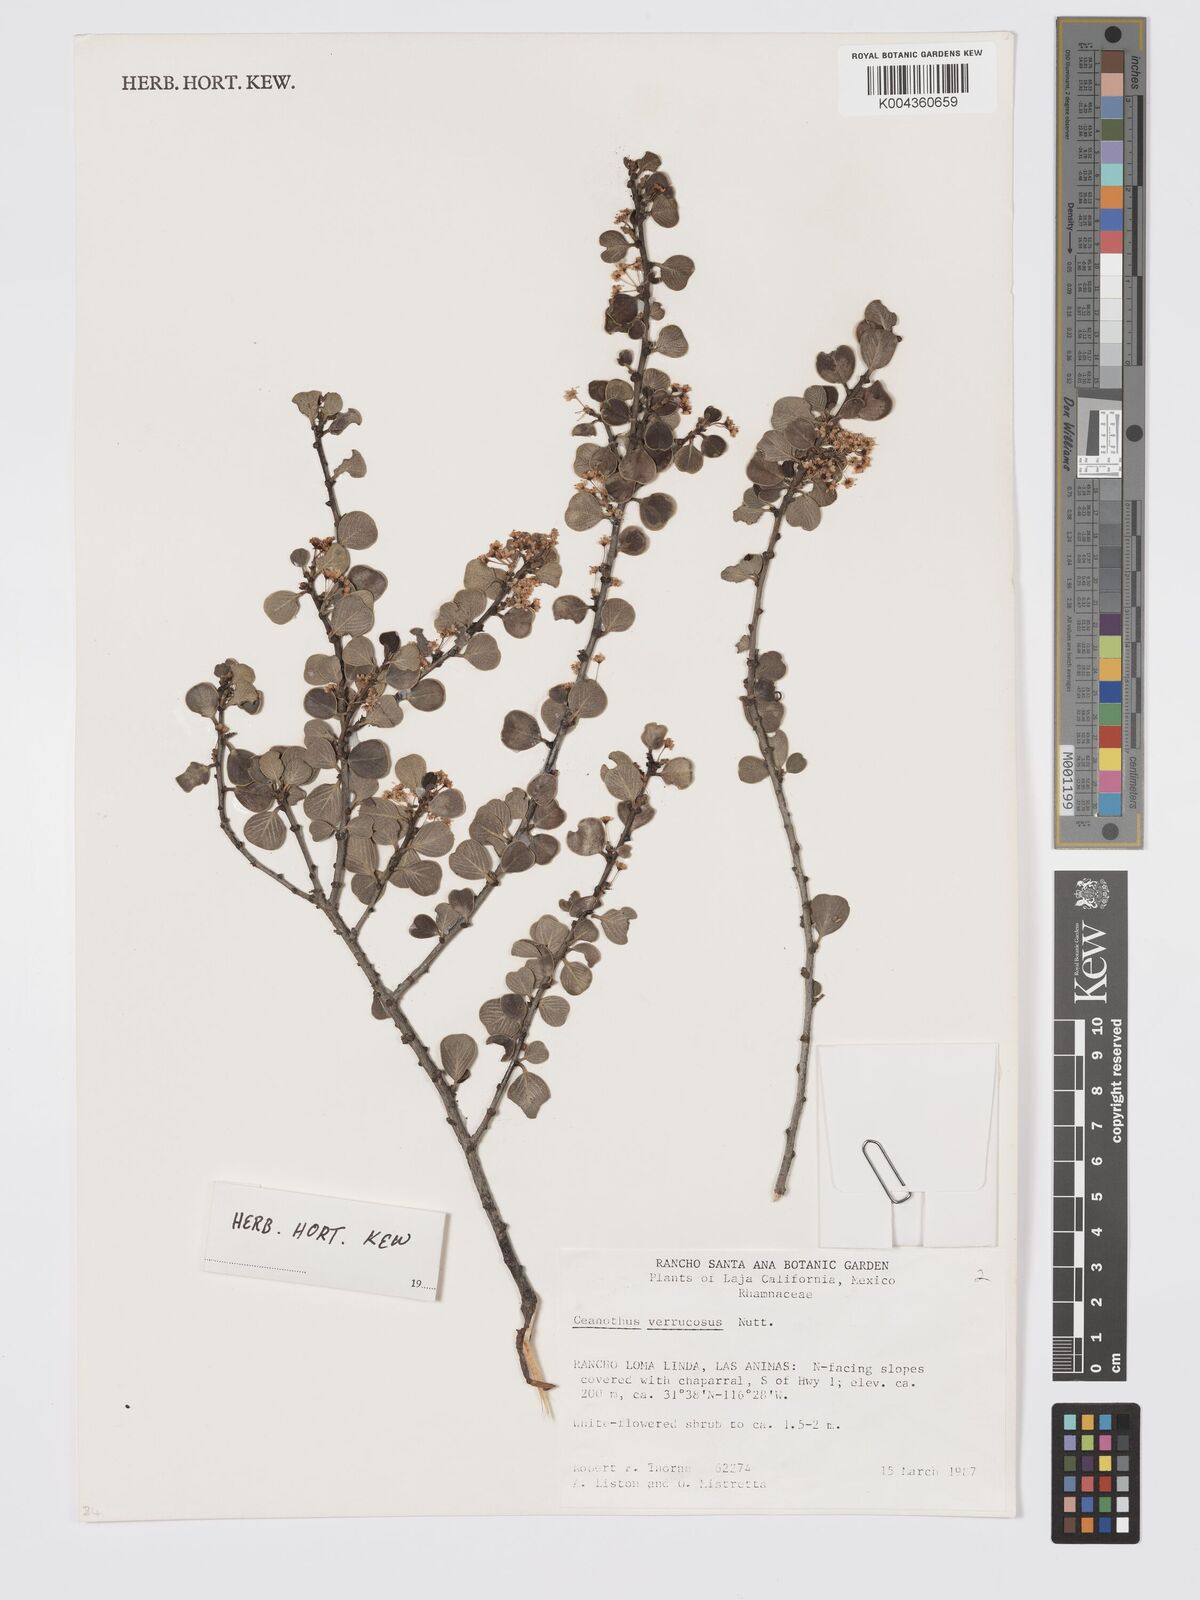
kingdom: Plantae
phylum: Tracheophyta
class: Magnoliopsida
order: Rosales
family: Rhamnaceae
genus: Ceanothus
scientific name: Ceanothus verrucosus
